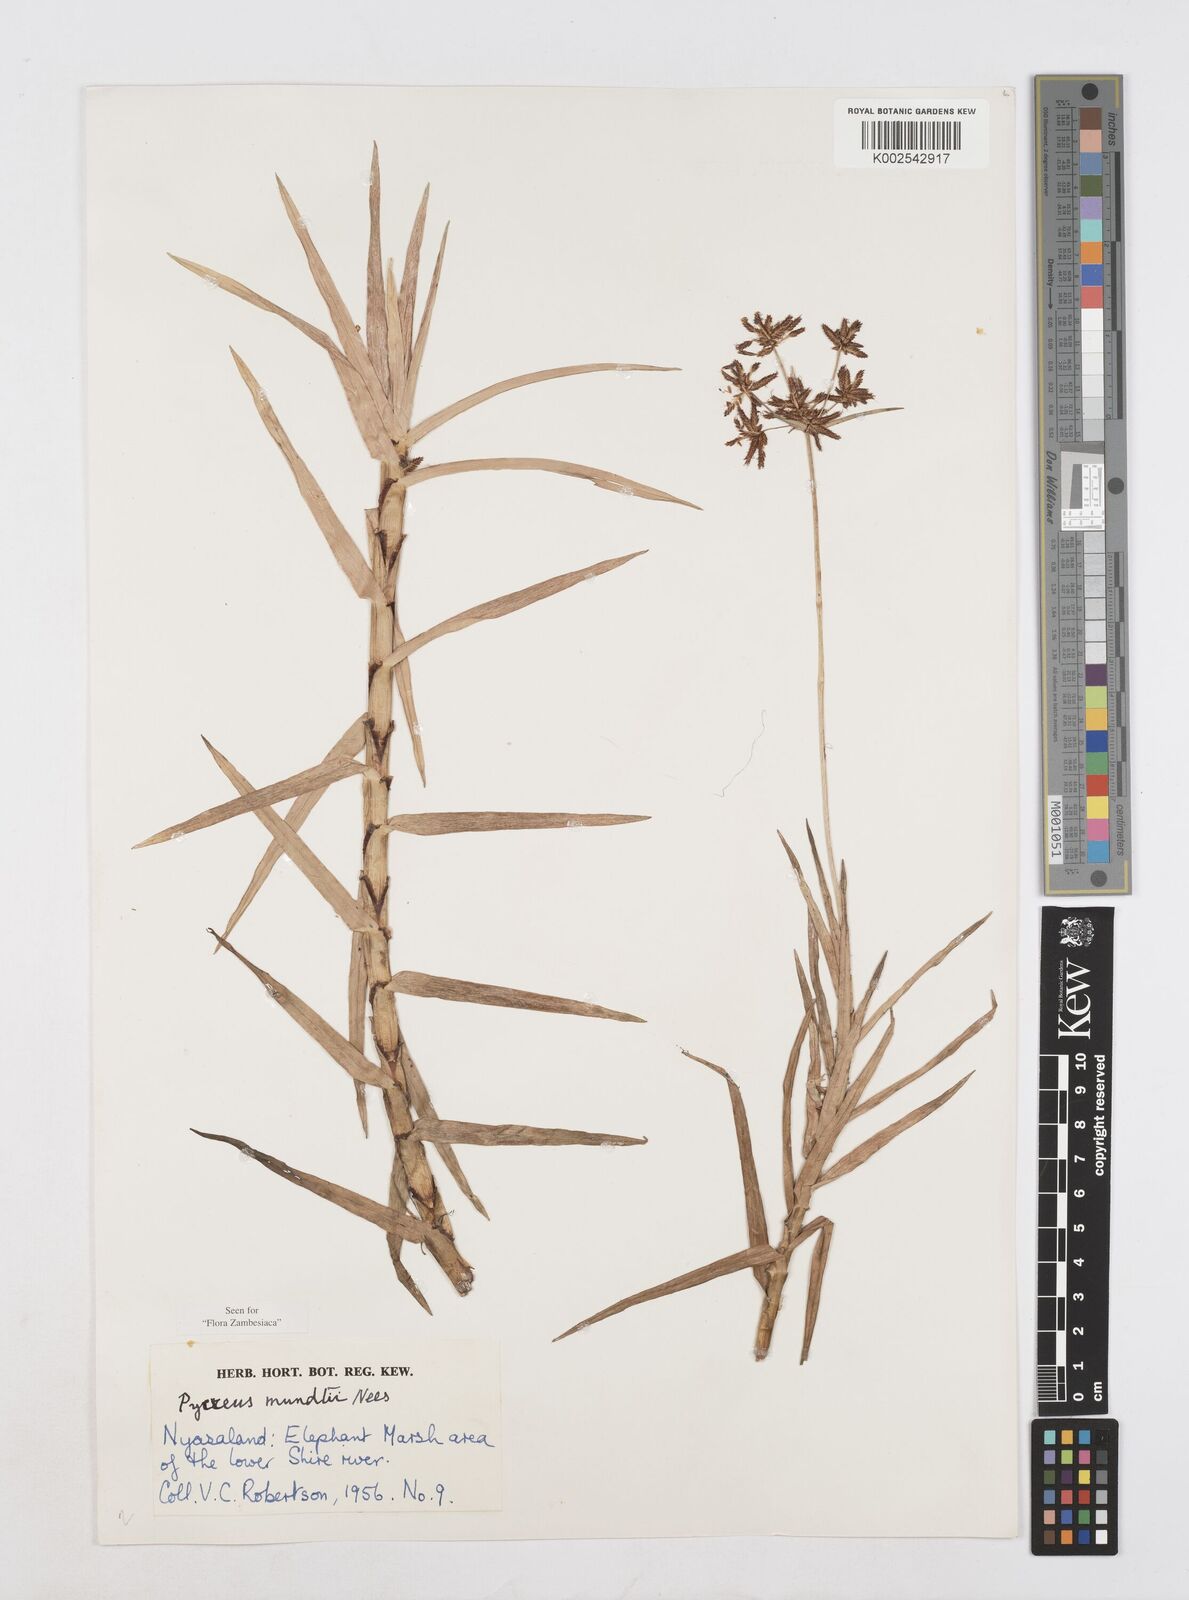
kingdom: Plantae
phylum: Tracheophyta
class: Liliopsida
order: Poales
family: Cyperaceae
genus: Cyperus
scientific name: Cyperus mundii
